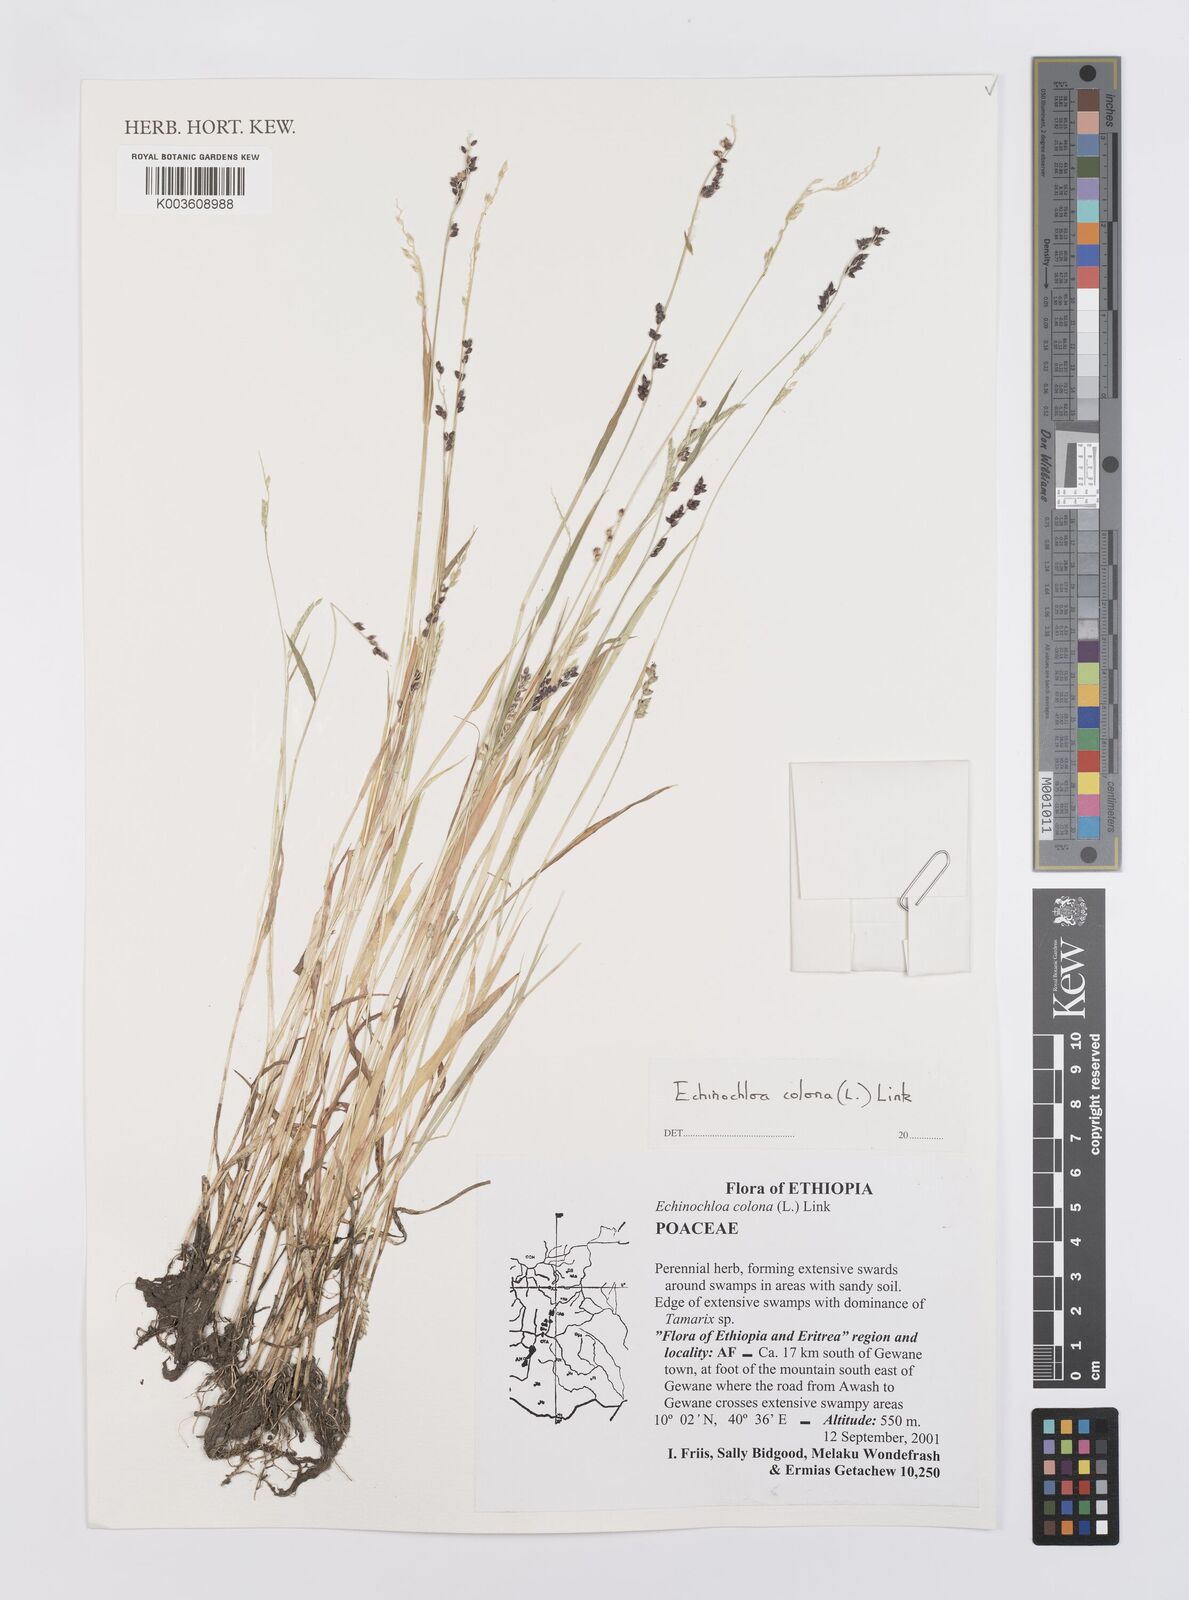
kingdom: Plantae
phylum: Tracheophyta
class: Liliopsida
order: Poales
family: Poaceae
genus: Echinochloa
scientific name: Echinochloa colonum
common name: Jungle rice
